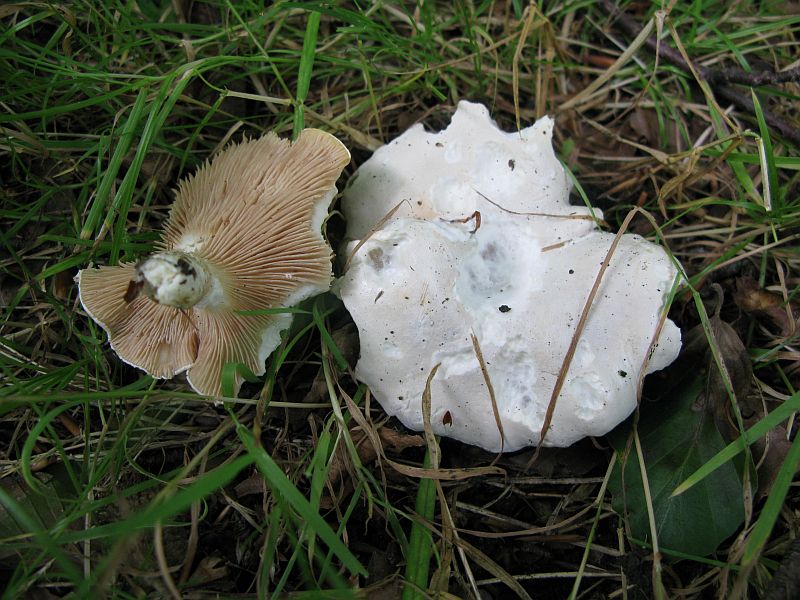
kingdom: Fungi
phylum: Basidiomycota
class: Agaricomycetes
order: Agaricales
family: Entolomataceae
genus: Clitopilus
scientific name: Clitopilus prunulus
